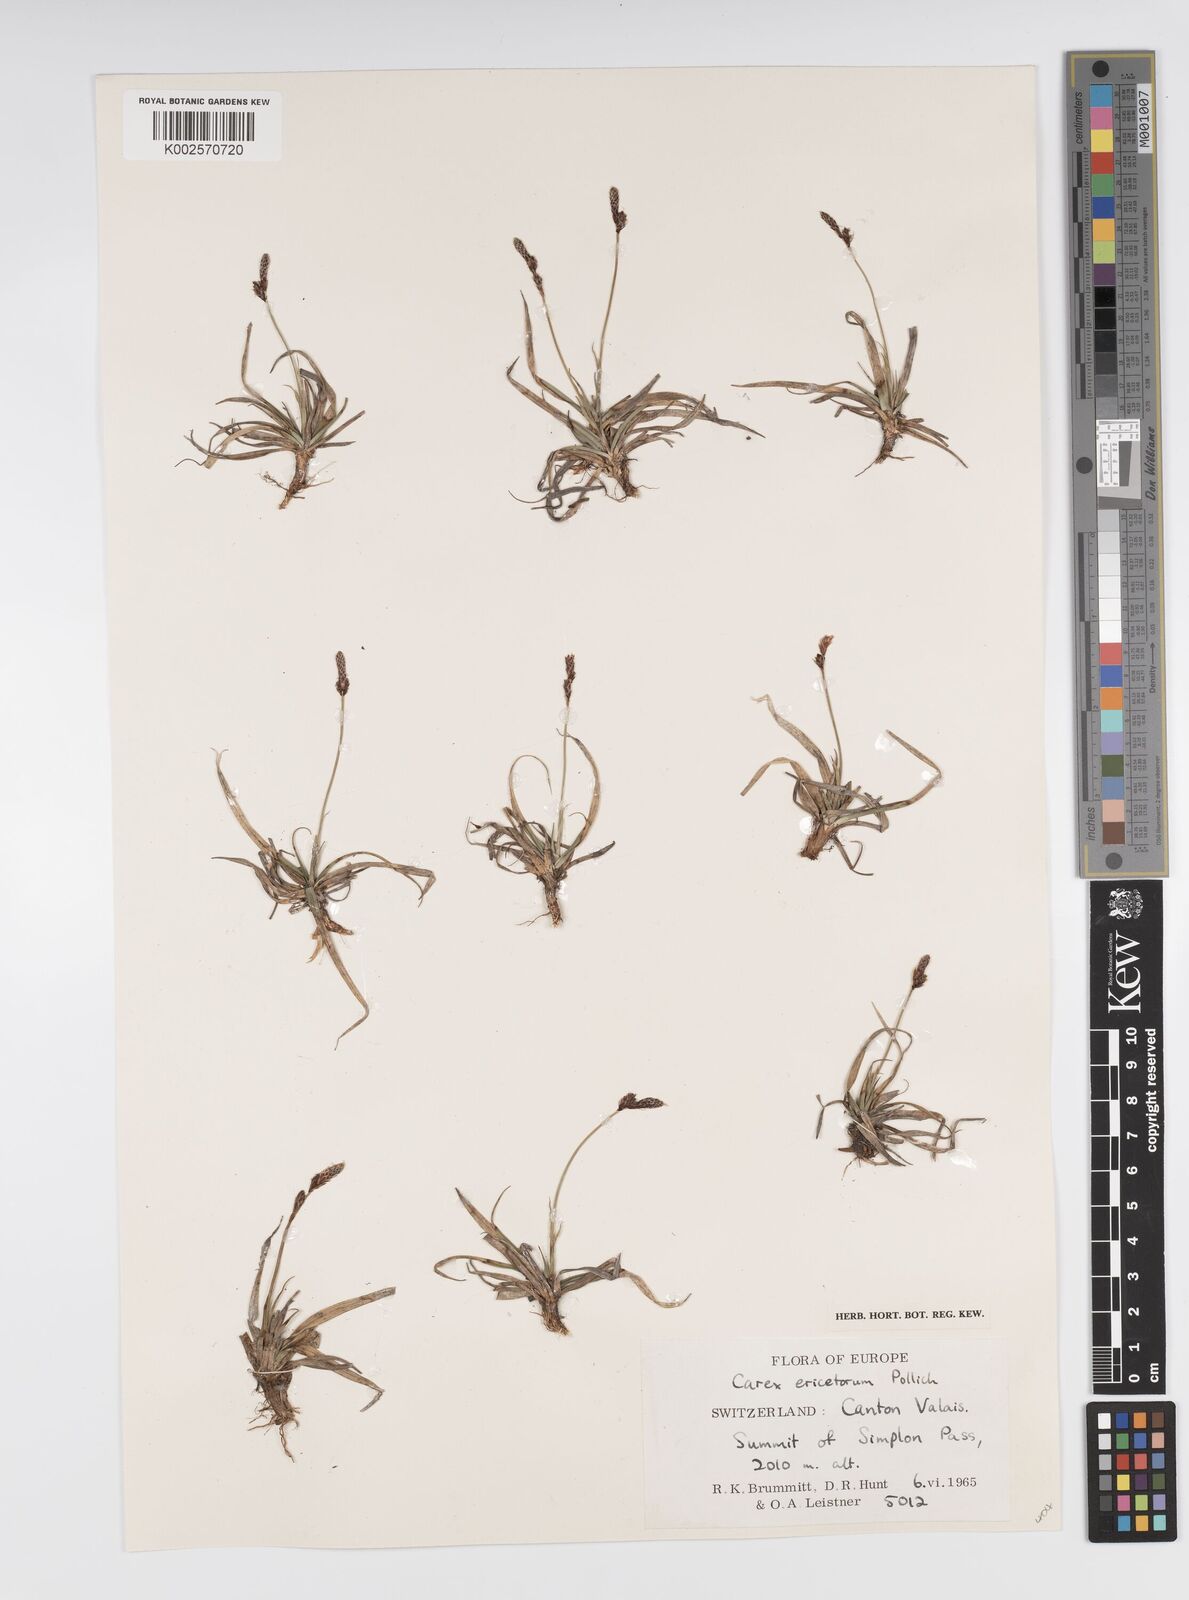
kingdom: Plantae
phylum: Tracheophyta
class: Liliopsida
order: Poales
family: Cyperaceae
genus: Carex
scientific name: Carex ericetorum
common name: Rare spring-sedge
